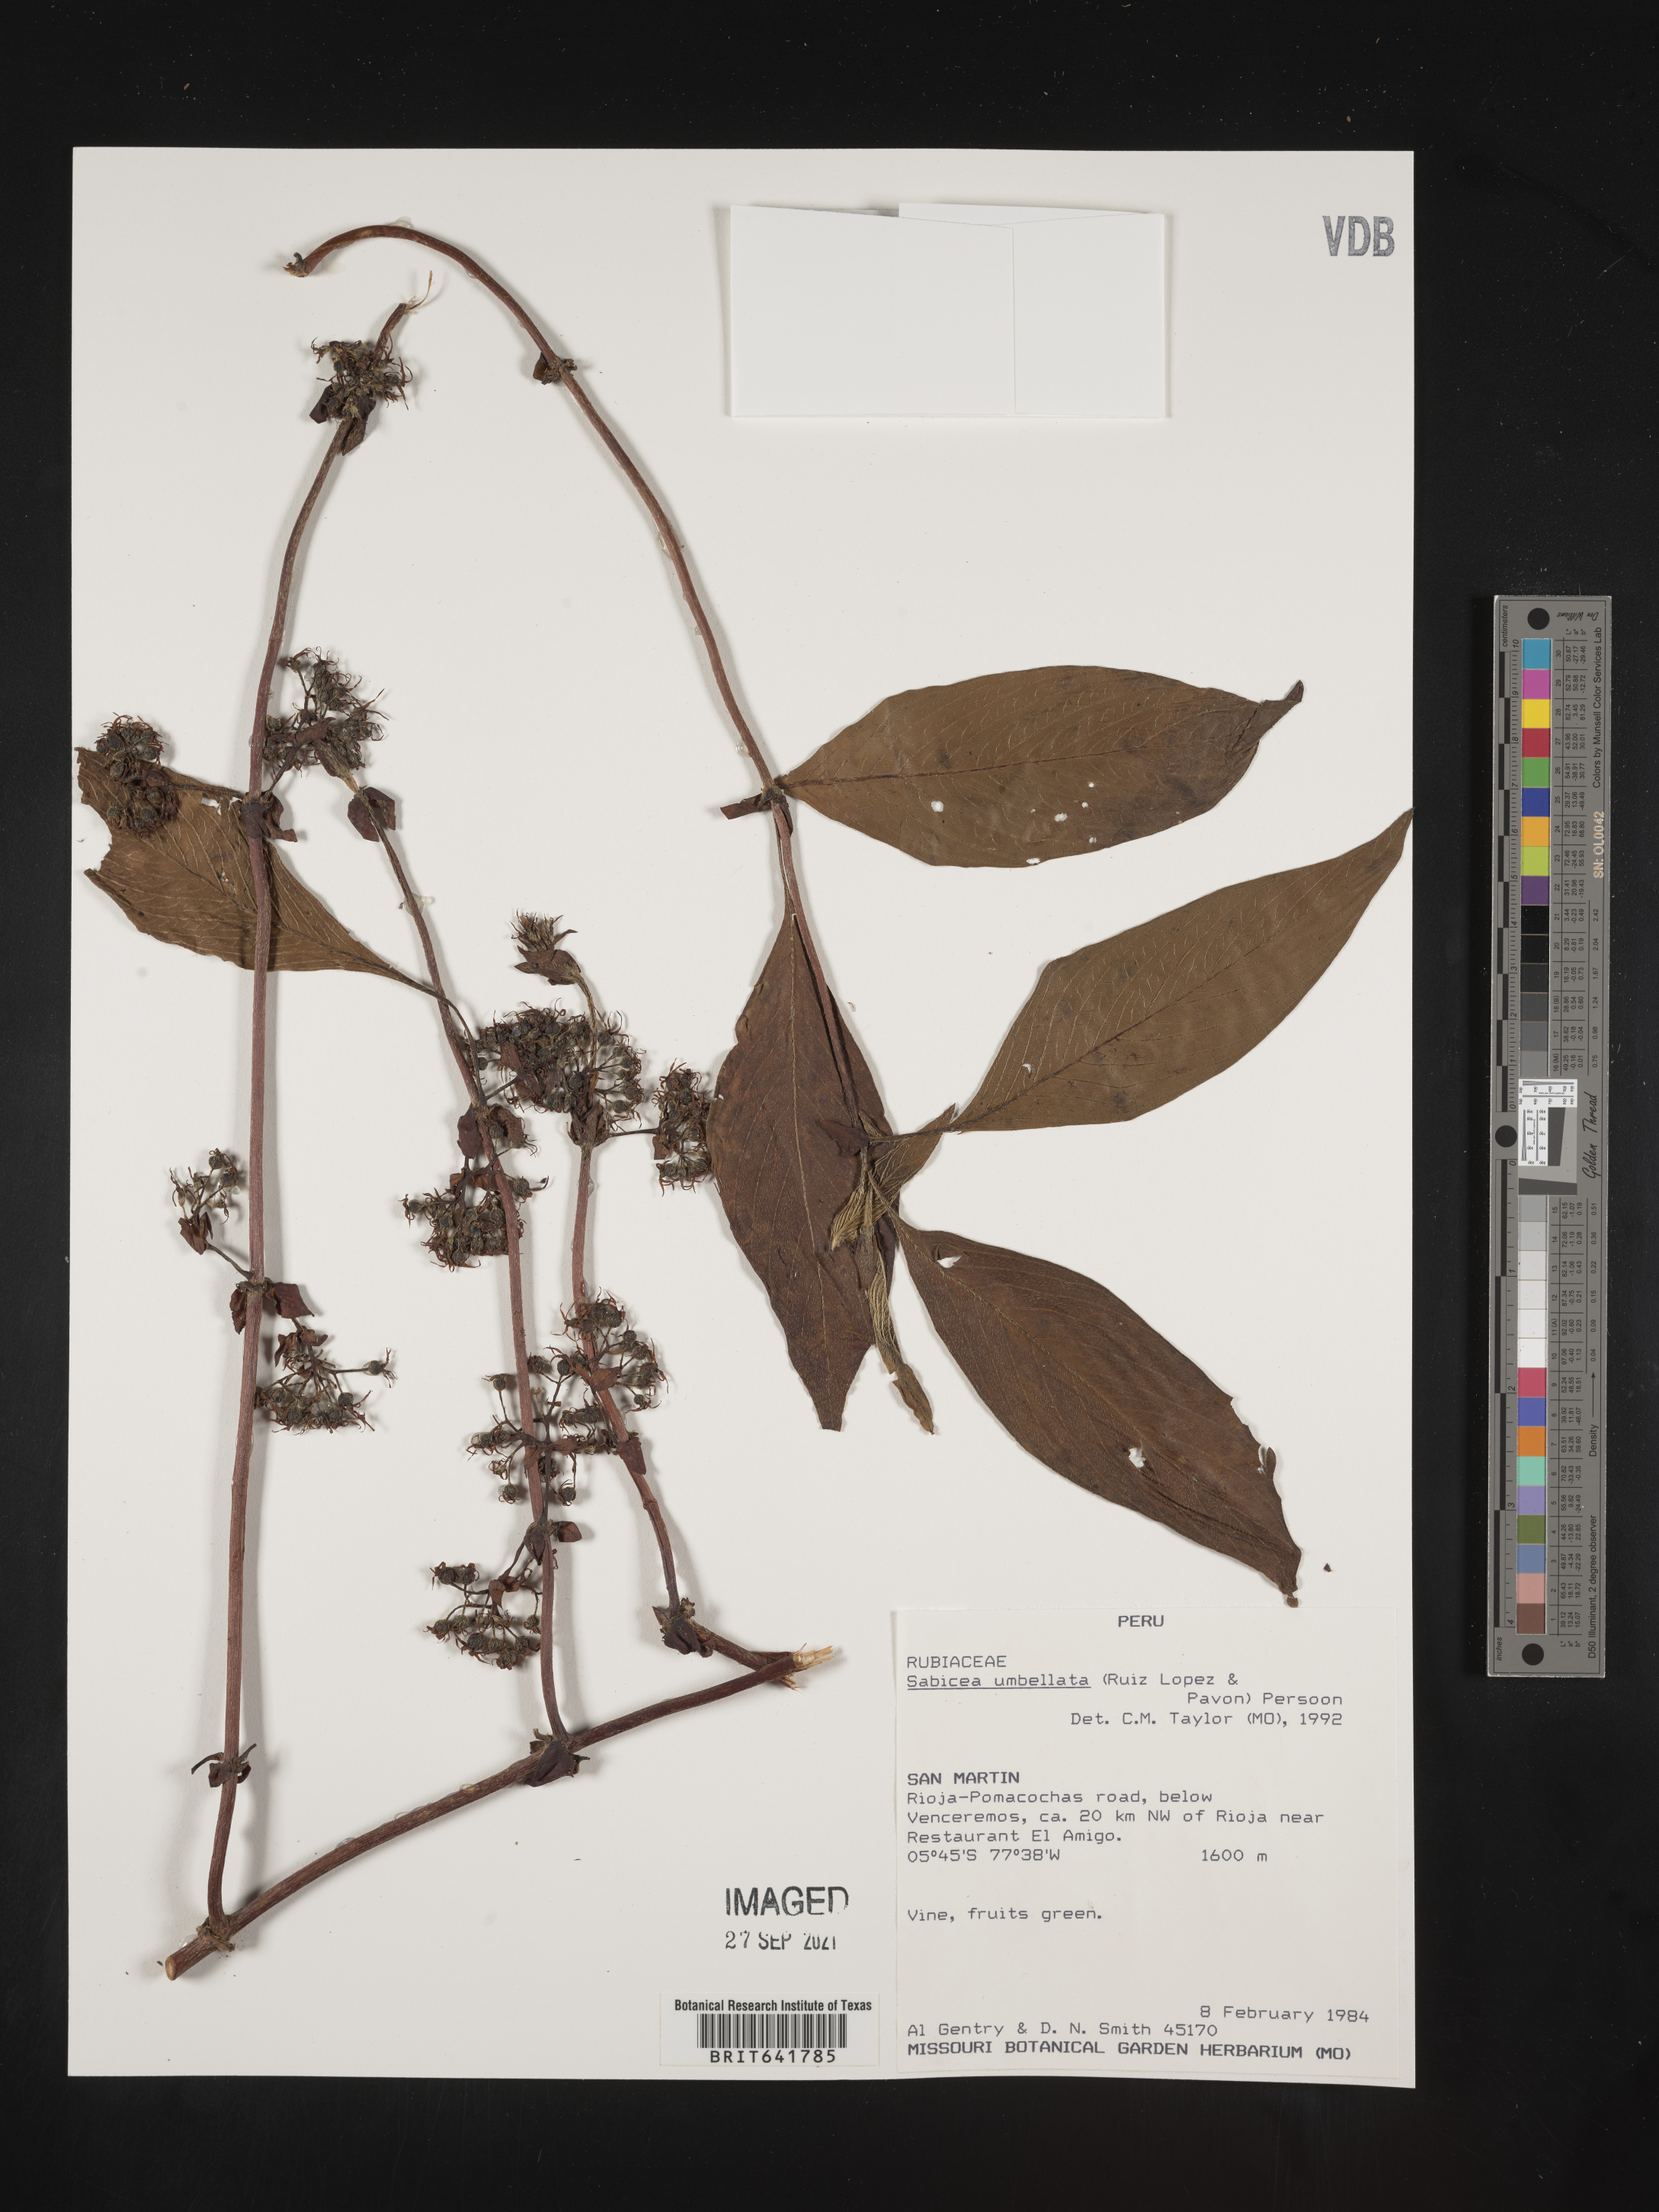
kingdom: Plantae
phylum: Tracheophyta
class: Magnoliopsida
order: Gentianales
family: Rubiaceae
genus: Sabicea
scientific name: Sabicea
